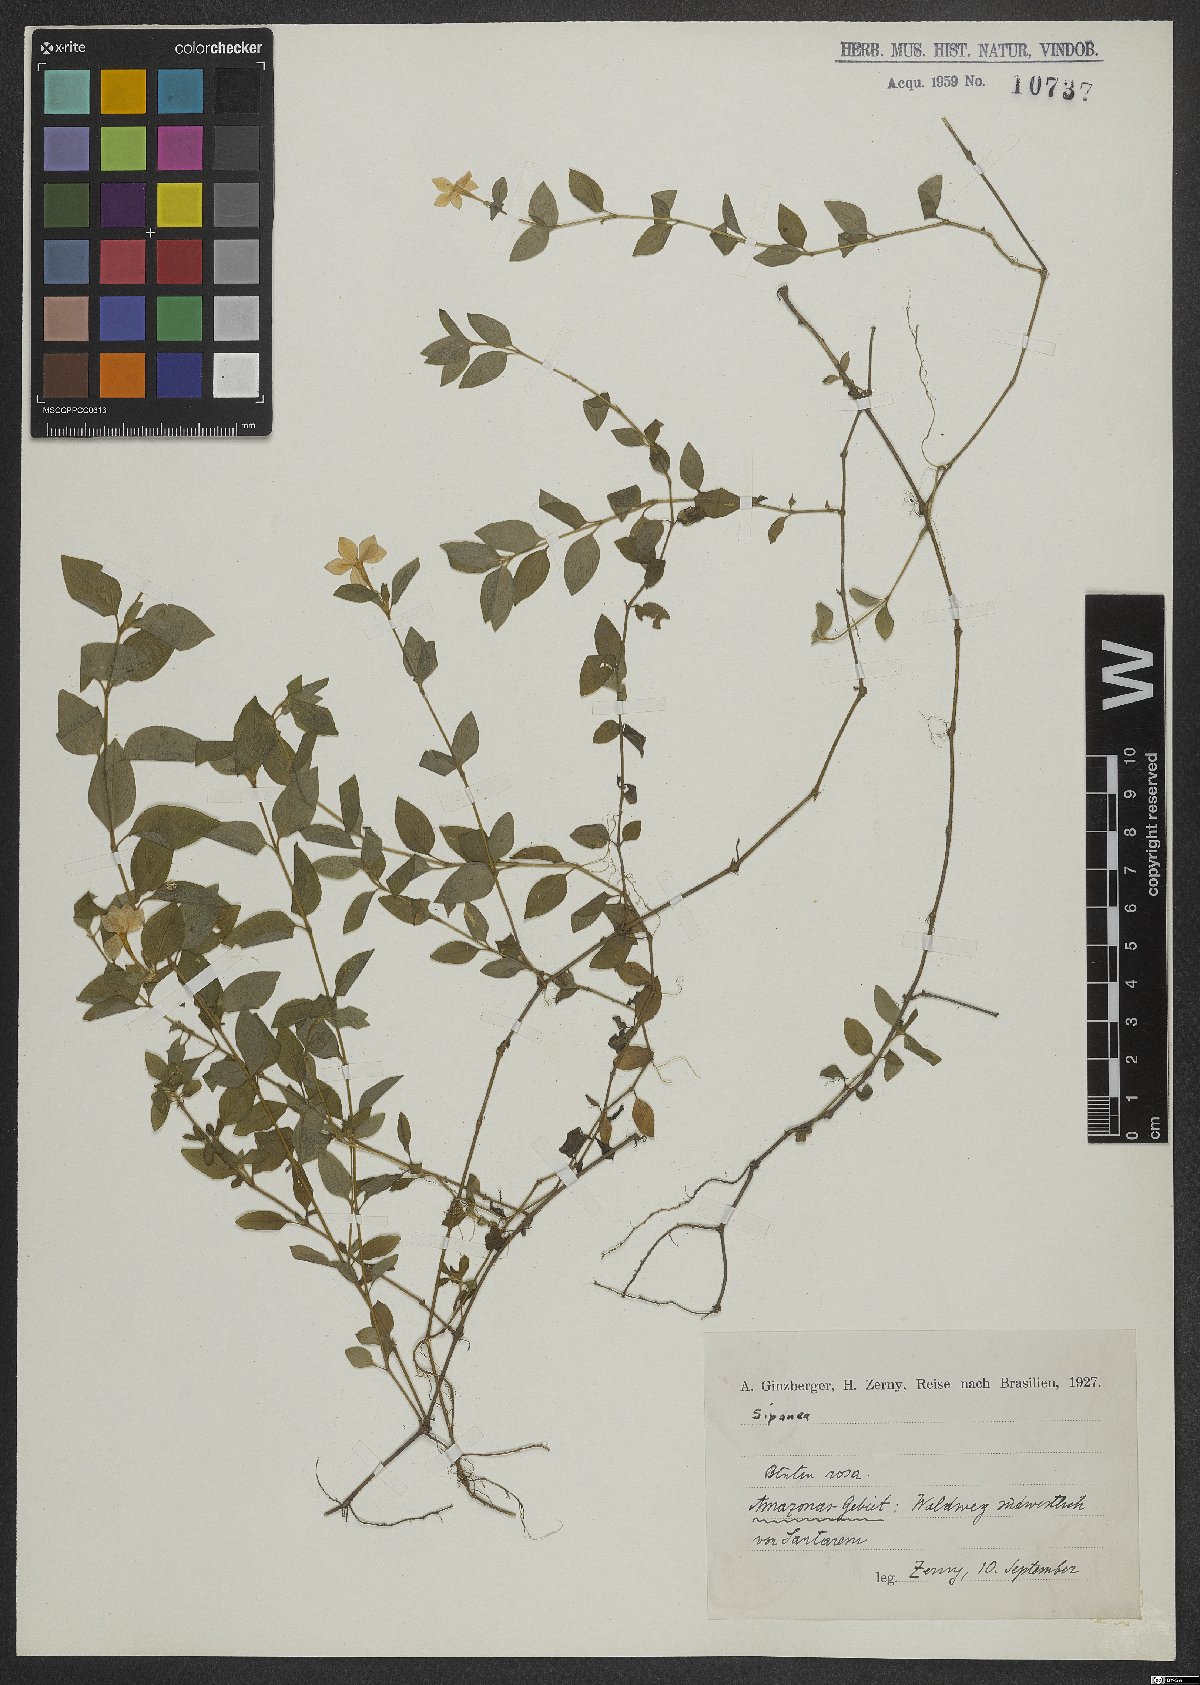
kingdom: Plantae
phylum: Tracheophyta
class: Magnoliopsida
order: Gentianales
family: Rubiaceae
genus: Sipanea
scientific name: Sipanea
